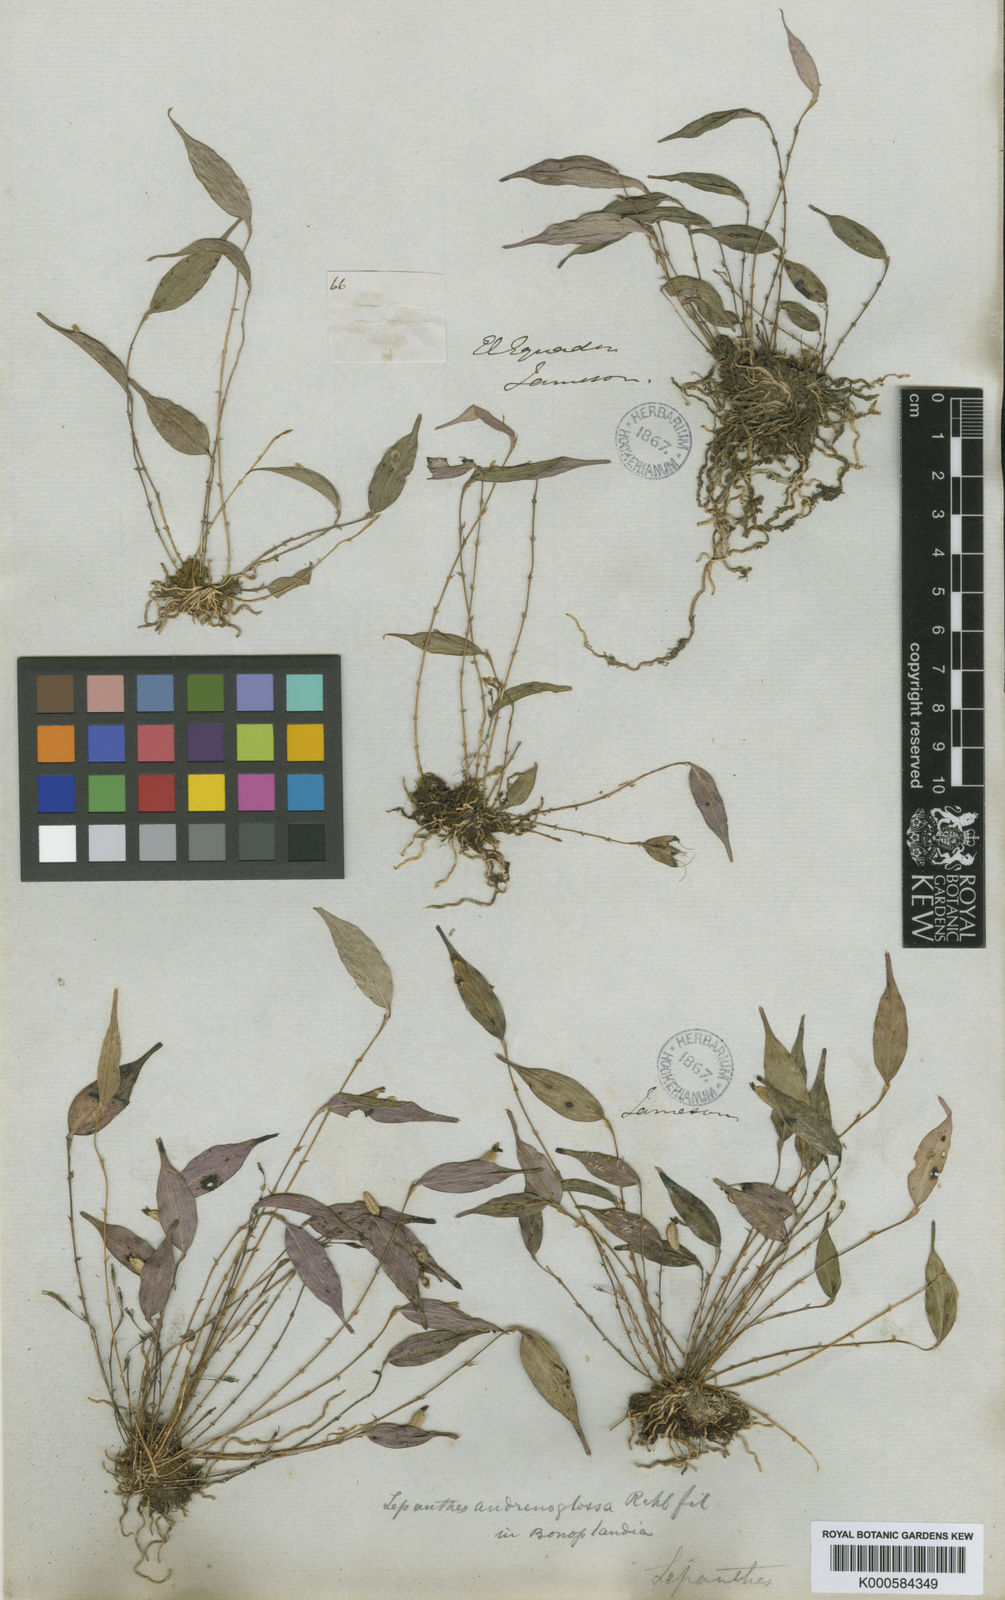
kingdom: Plantae
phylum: Tracheophyta
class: Liliopsida
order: Asparagales
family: Orchidaceae
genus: Lepanthes
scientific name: Lepanthes andrenoglossa
